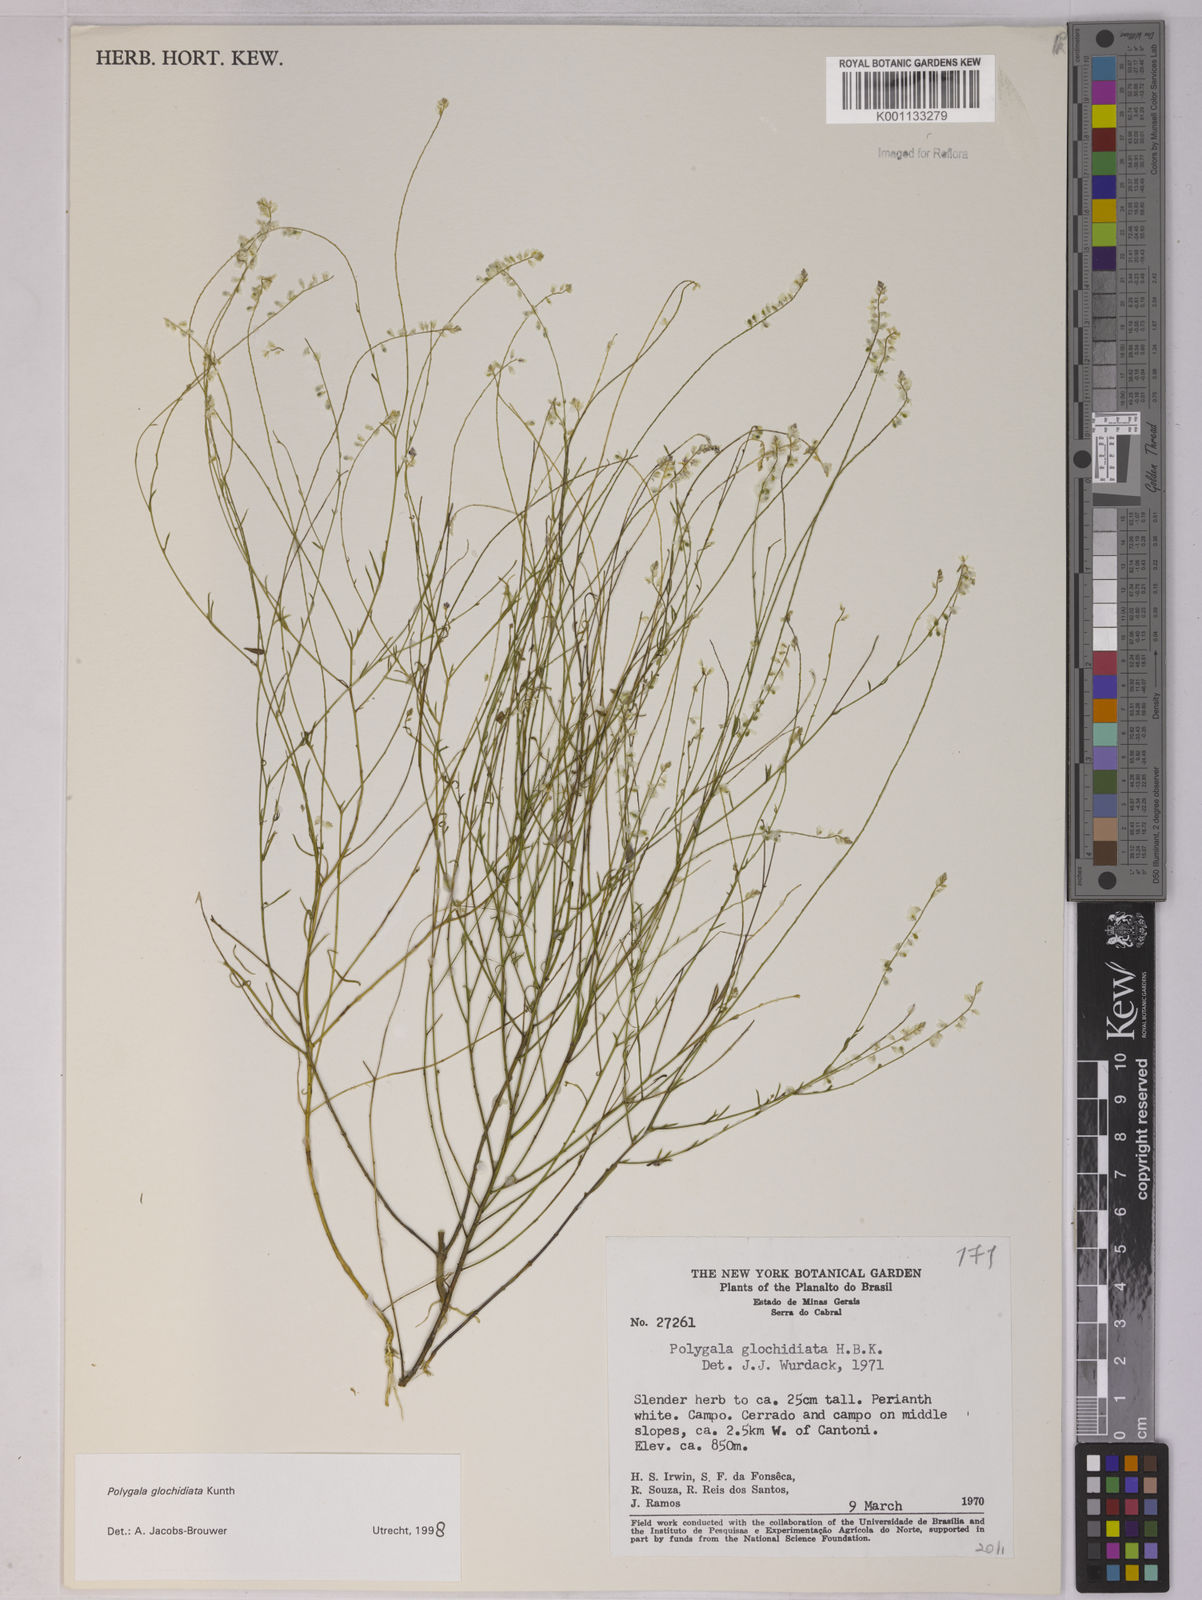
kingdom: Plantae
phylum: Tracheophyta
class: Magnoliopsida
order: Fabales
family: Polygalaceae
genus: Polygala
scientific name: Polygala glochidiata
